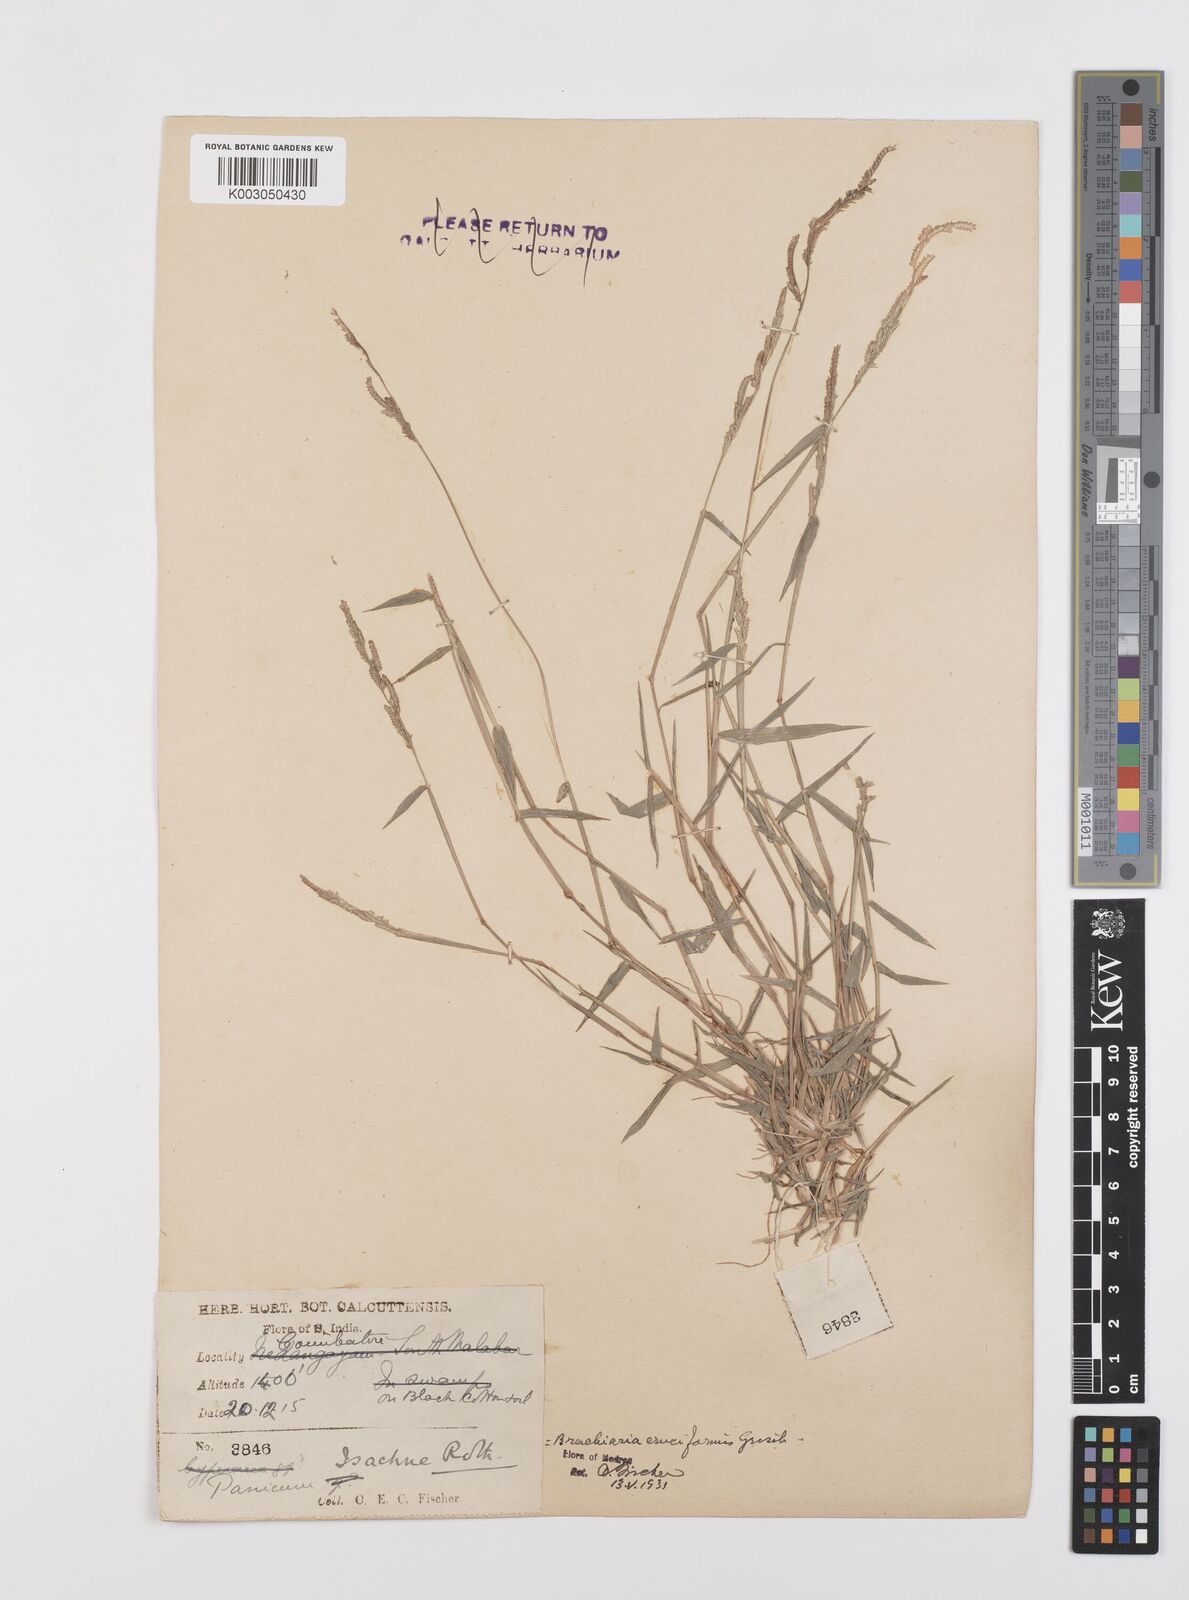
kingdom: Plantae
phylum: Tracheophyta
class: Liliopsida
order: Poales
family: Poaceae
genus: Moorochloa
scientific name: Moorochloa eruciformis
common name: Sweet signalgrass
